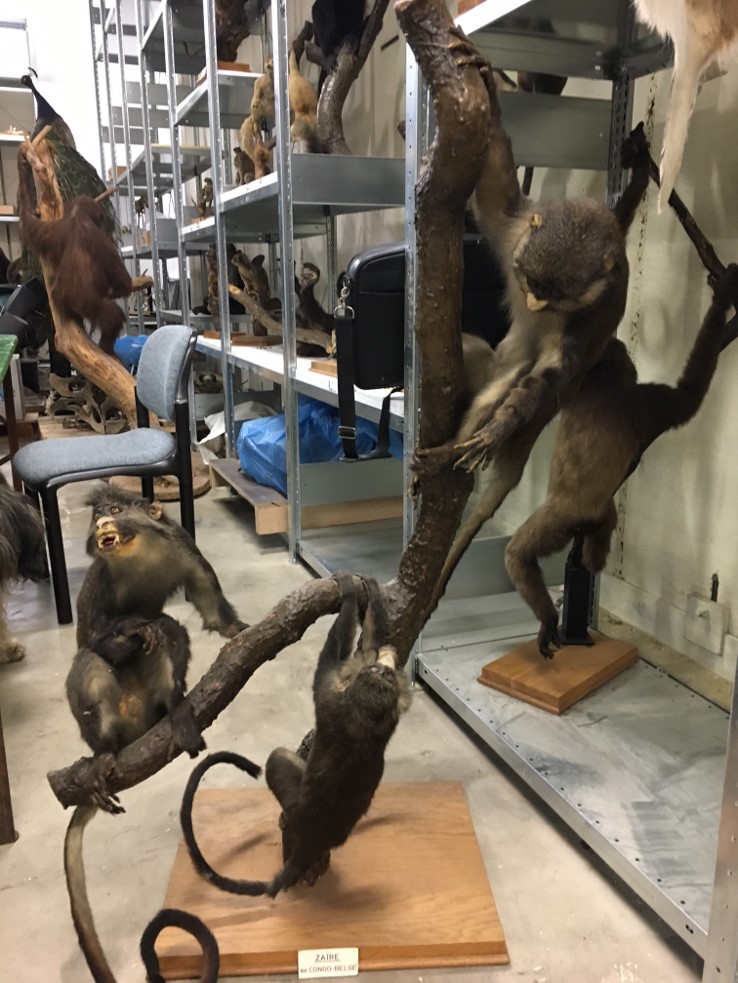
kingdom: Animalia
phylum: Chordata
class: Mammalia
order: Primates
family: Cercopithecidae
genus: Cercopithecus
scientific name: Cercopithecus petaurista
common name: Lesser spot-nosed monkey
